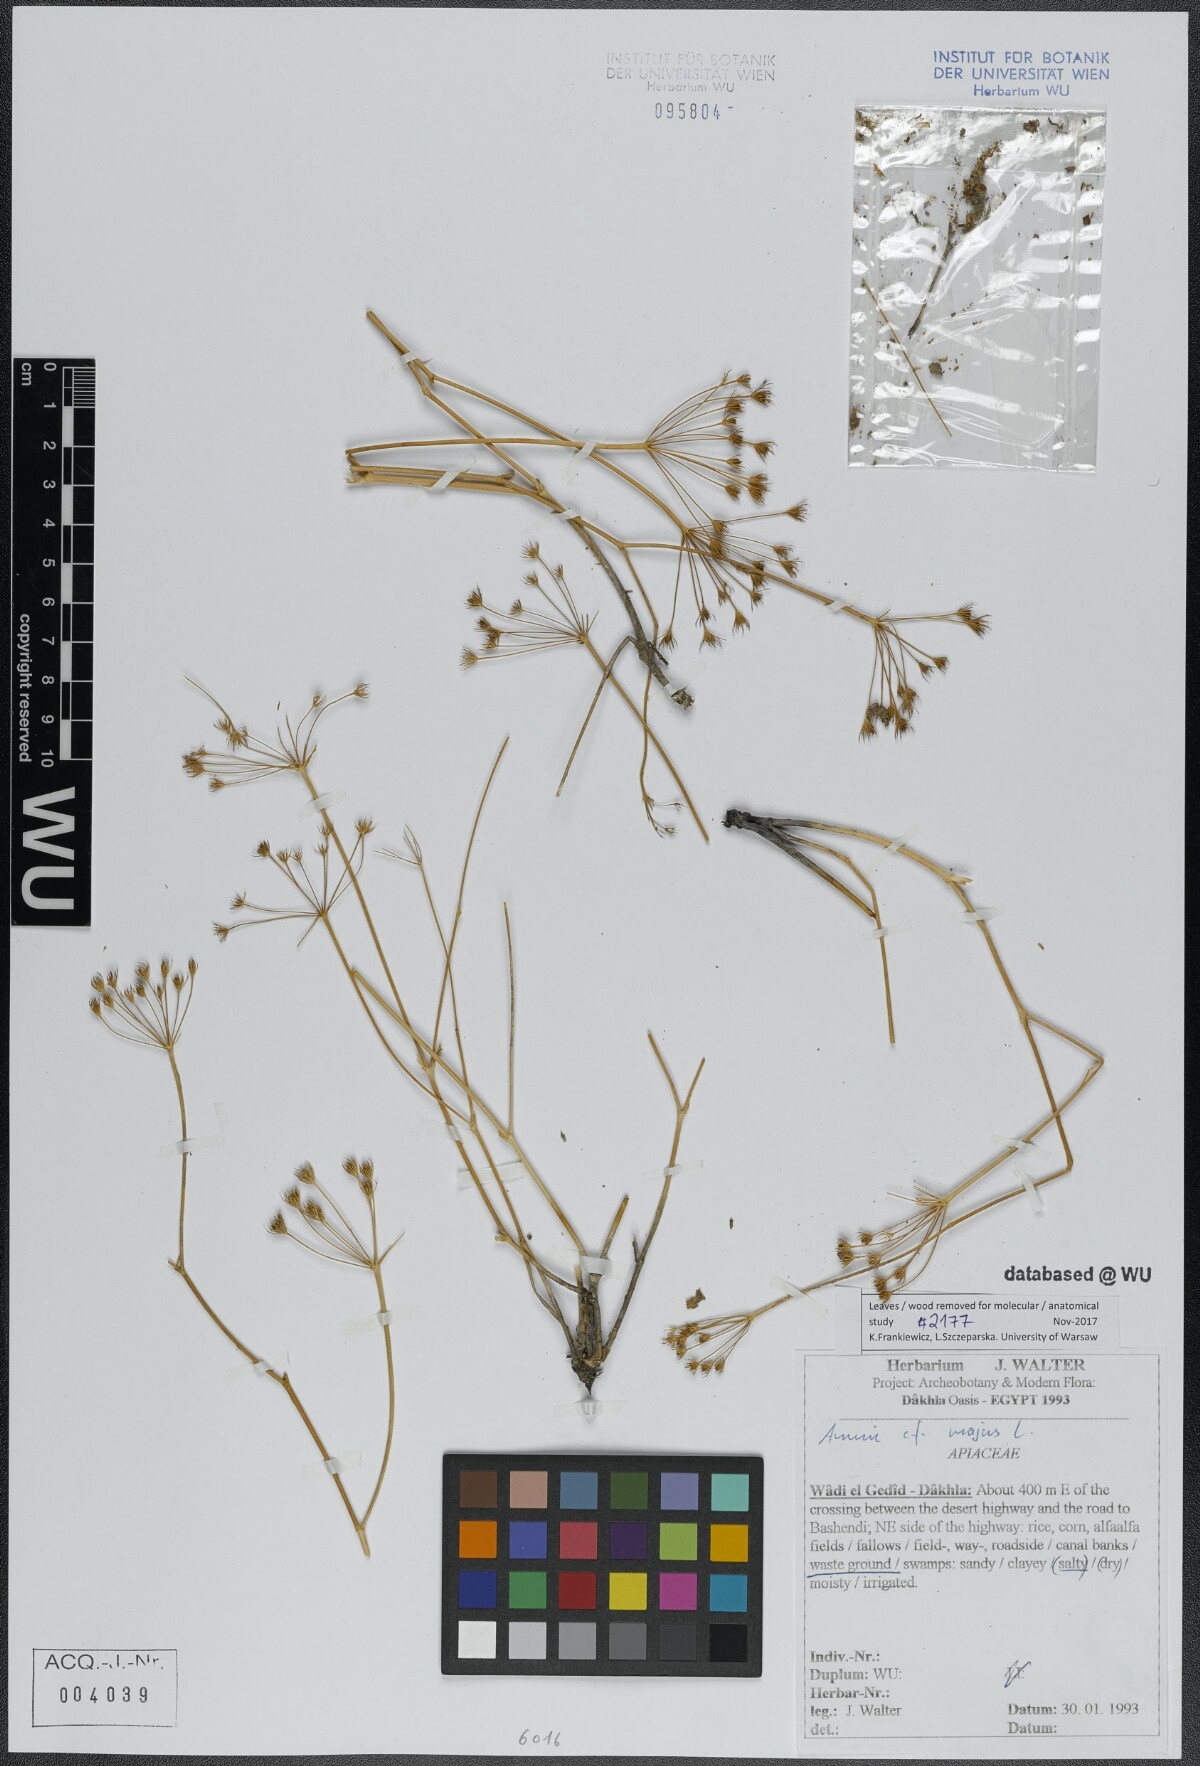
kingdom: Plantae
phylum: Tracheophyta
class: Magnoliopsida
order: Apiales
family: Apiaceae
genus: Ammi
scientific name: Ammi majus
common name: Bullwort
